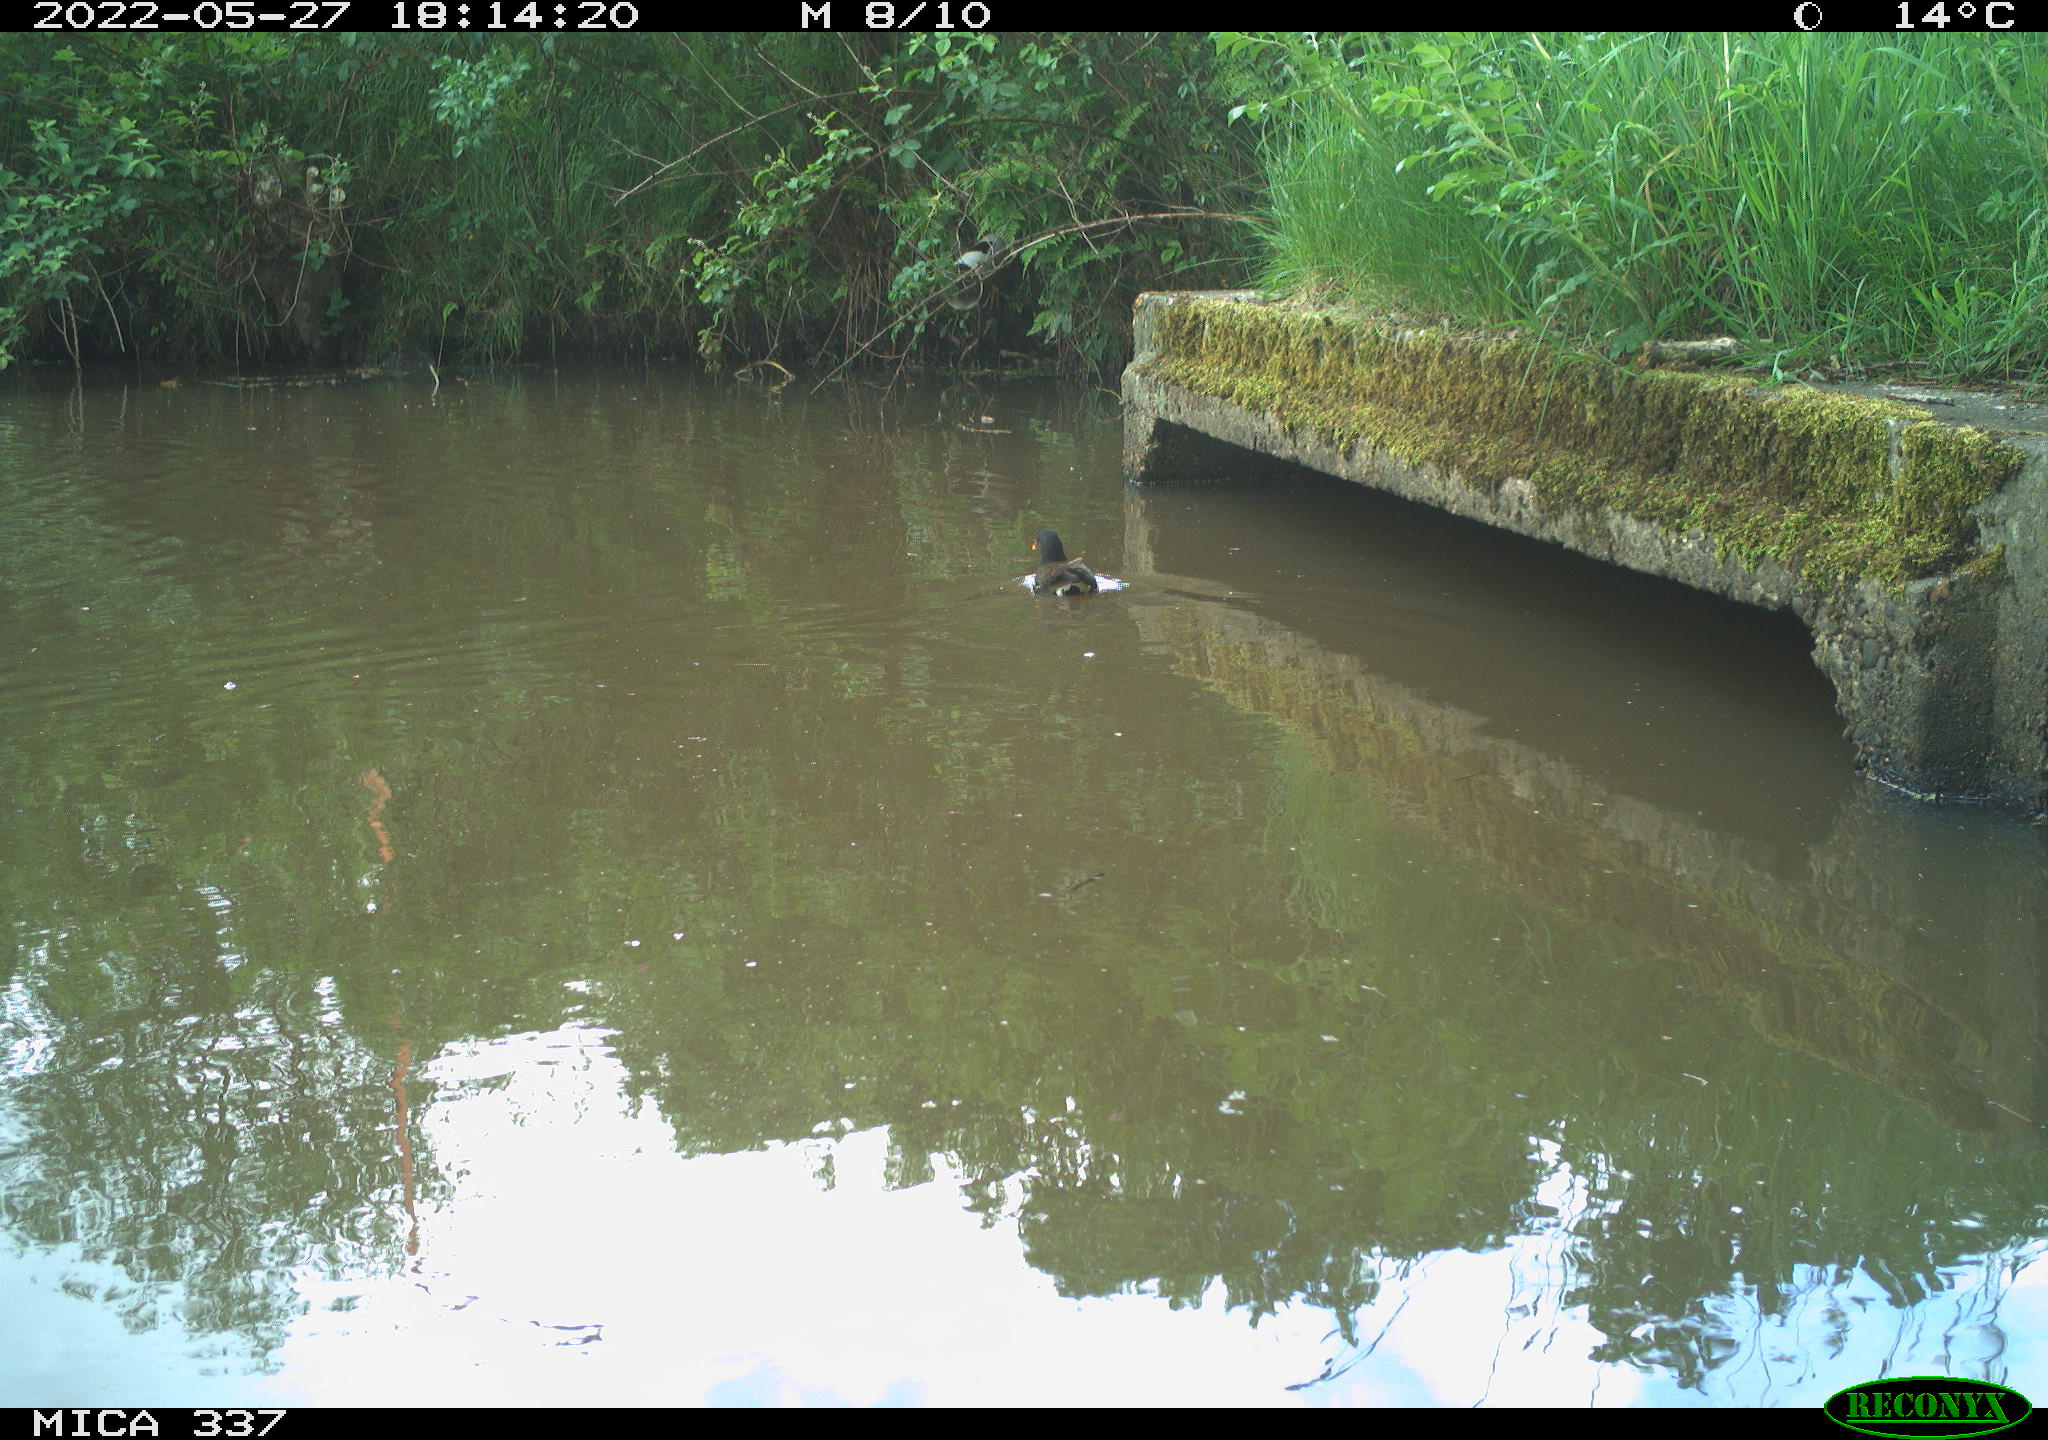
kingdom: Animalia
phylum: Chordata
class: Aves
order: Gruiformes
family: Rallidae
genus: Gallinula
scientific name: Gallinula chloropus
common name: Common moorhen
